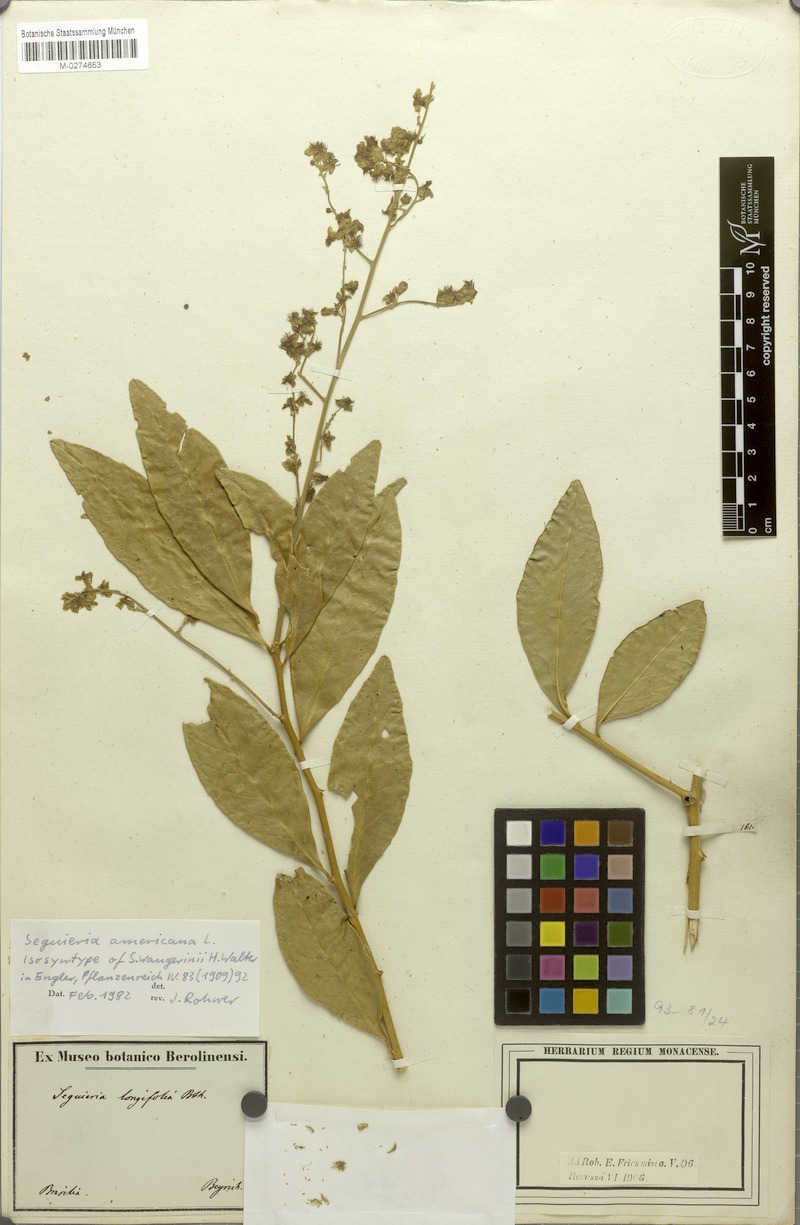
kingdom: Plantae
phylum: Tracheophyta
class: Magnoliopsida
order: Caryophyllales
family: Phytolaccaceae
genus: Seguieria
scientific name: Seguieria americana
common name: American seguieria
